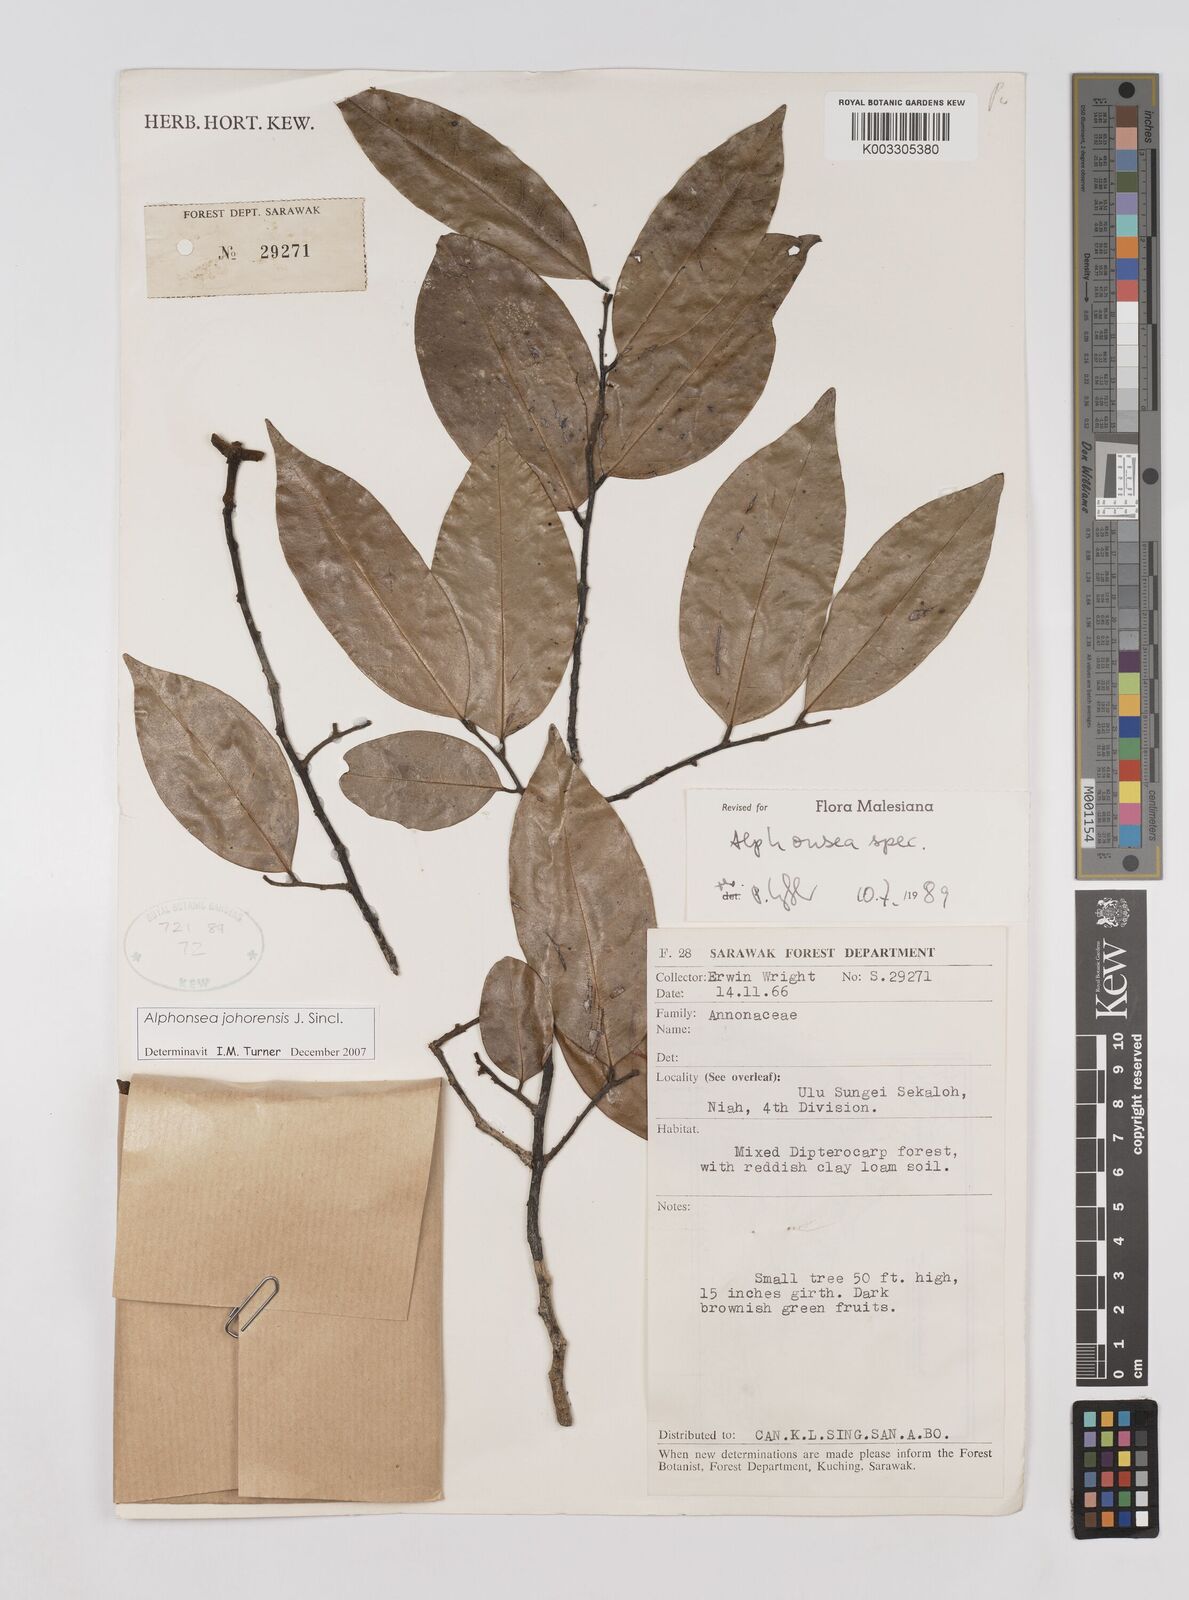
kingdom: Plantae
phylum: Tracheophyta
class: Magnoliopsida
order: Magnoliales
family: Annonaceae
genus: Alphonsea
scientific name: Alphonsea johorensis
